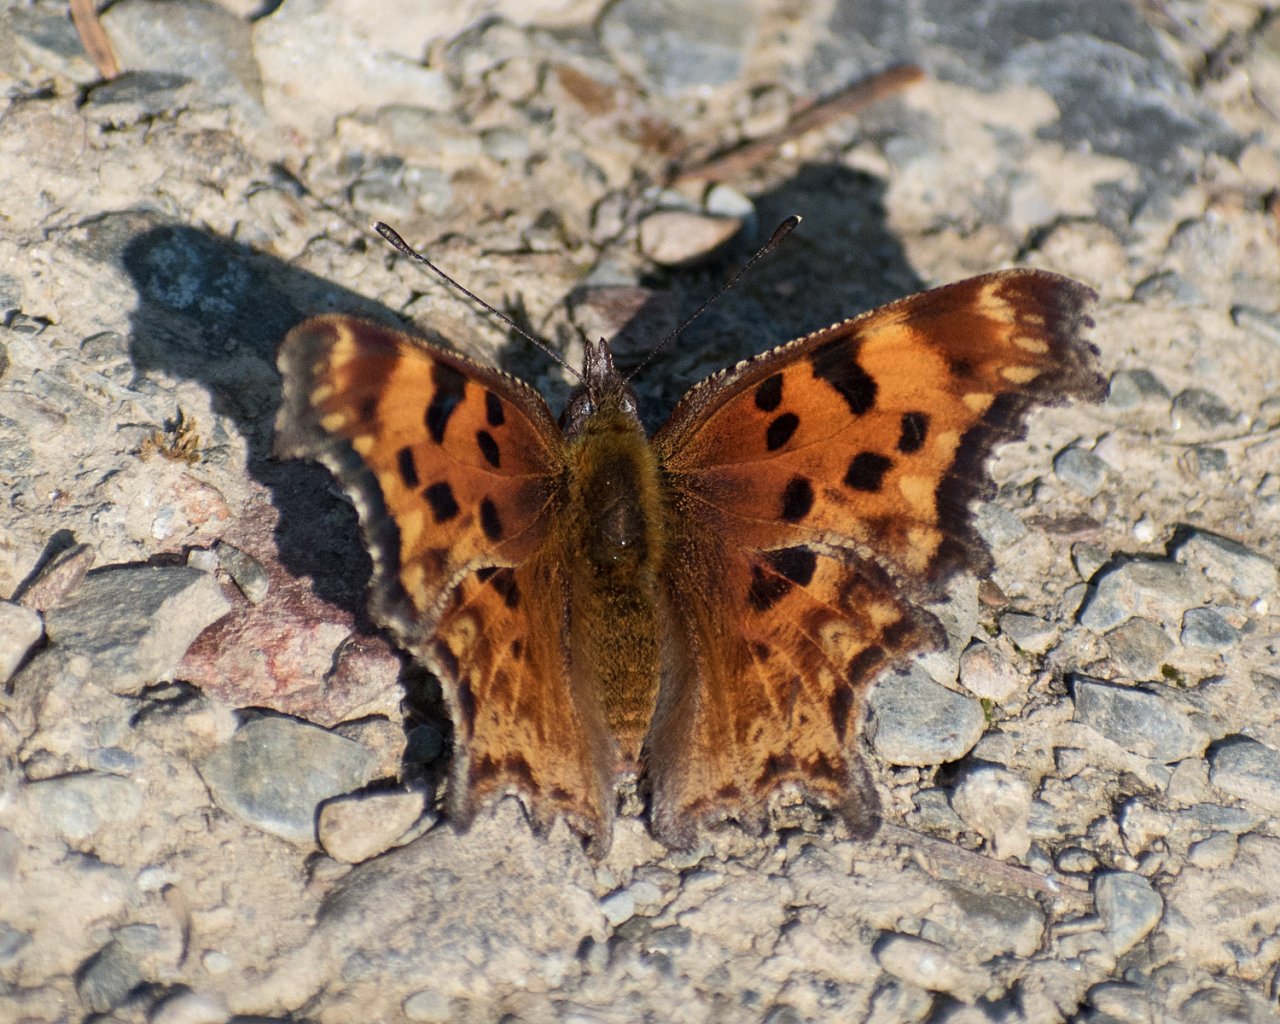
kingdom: Animalia
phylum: Arthropoda
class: Insecta
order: Lepidoptera
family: Nymphalidae
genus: Polygonia
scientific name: Polygonia gracilis
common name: Hoary Comma
